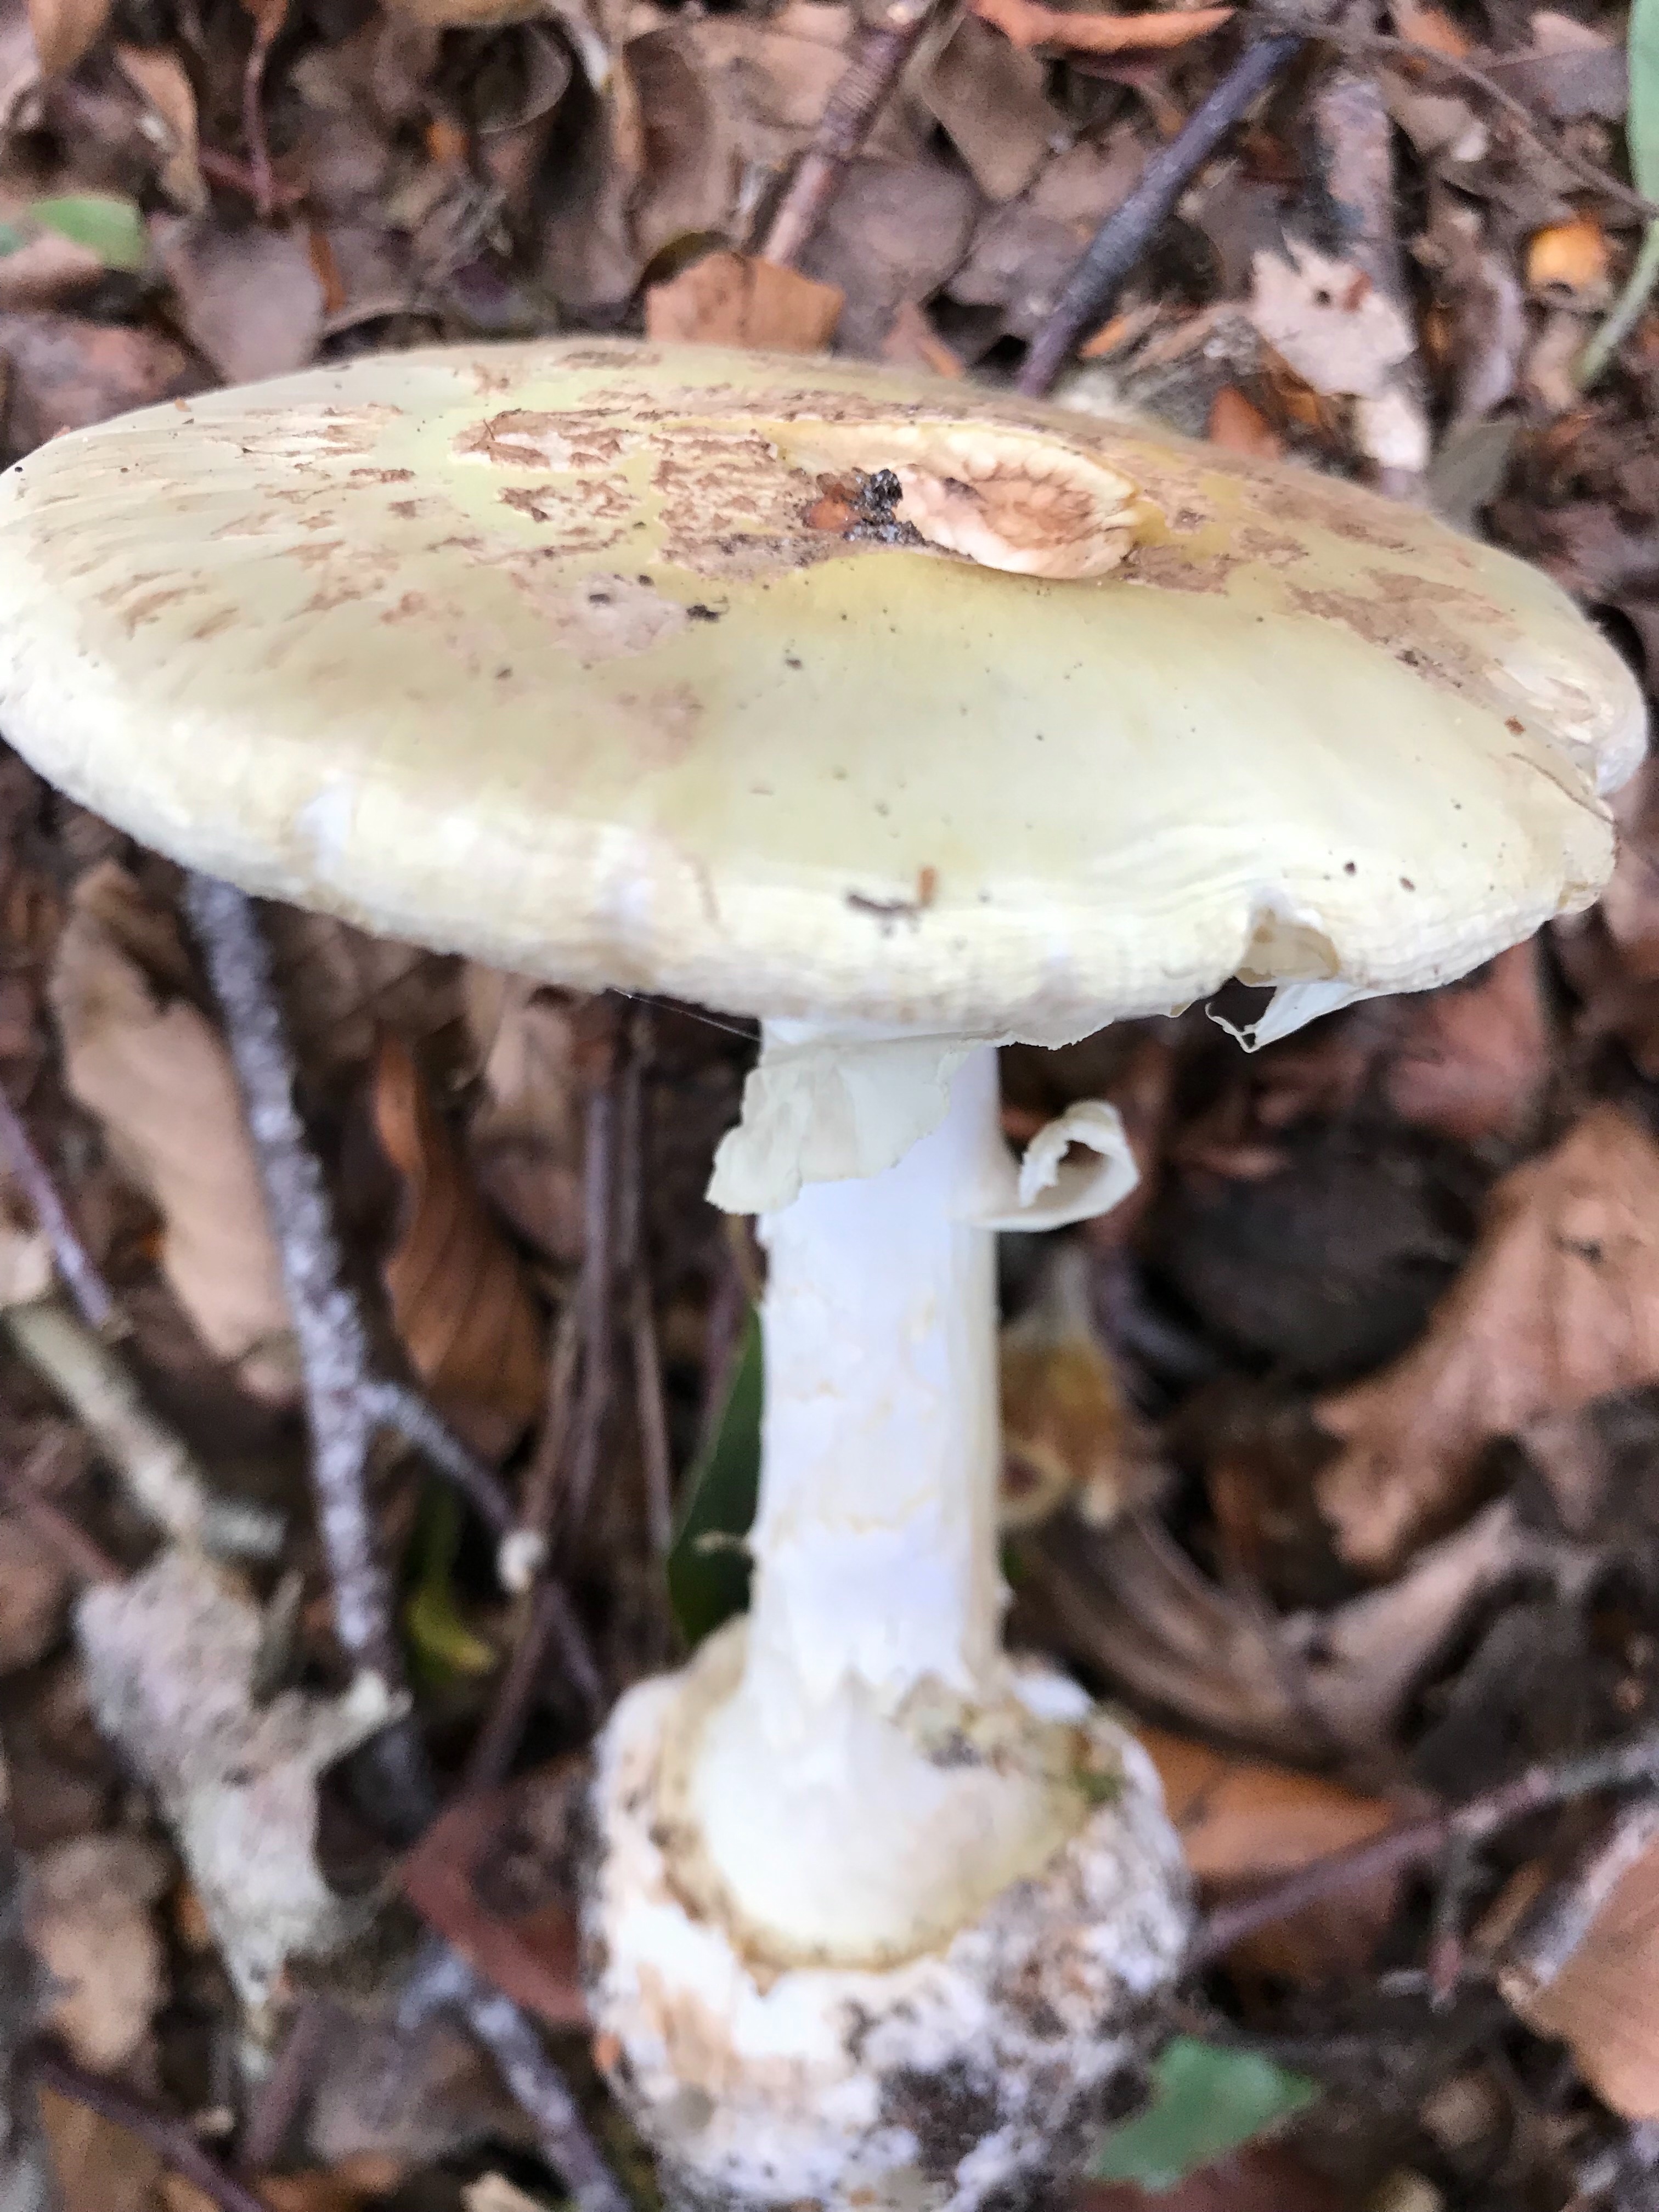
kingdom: Fungi
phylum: Basidiomycota
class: Agaricomycetes
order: Agaricales
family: Amanitaceae
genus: Amanita
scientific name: Amanita citrina
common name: kugleknoldet fluesvamp
